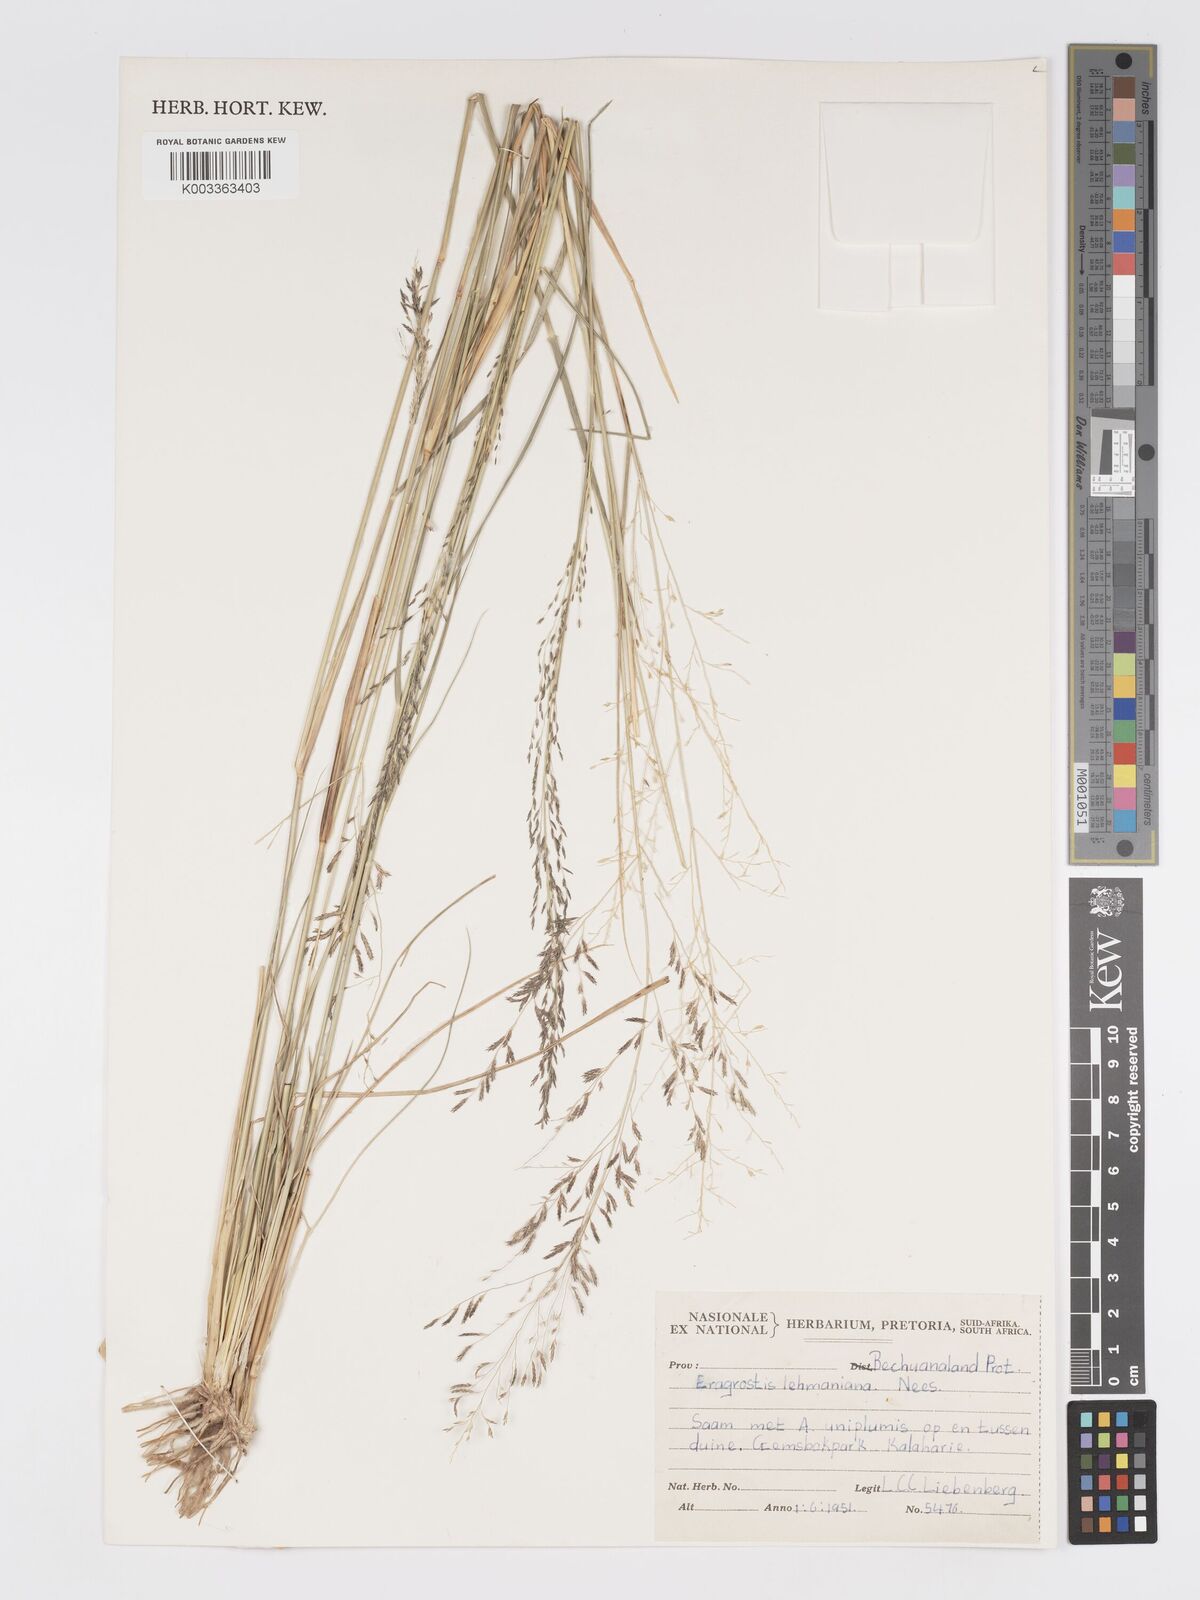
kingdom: Plantae
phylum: Tracheophyta
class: Liliopsida
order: Poales
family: Poaceae
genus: Eragrostis
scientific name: Eragrostis lehmanniana
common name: Lehmann lovegrass
